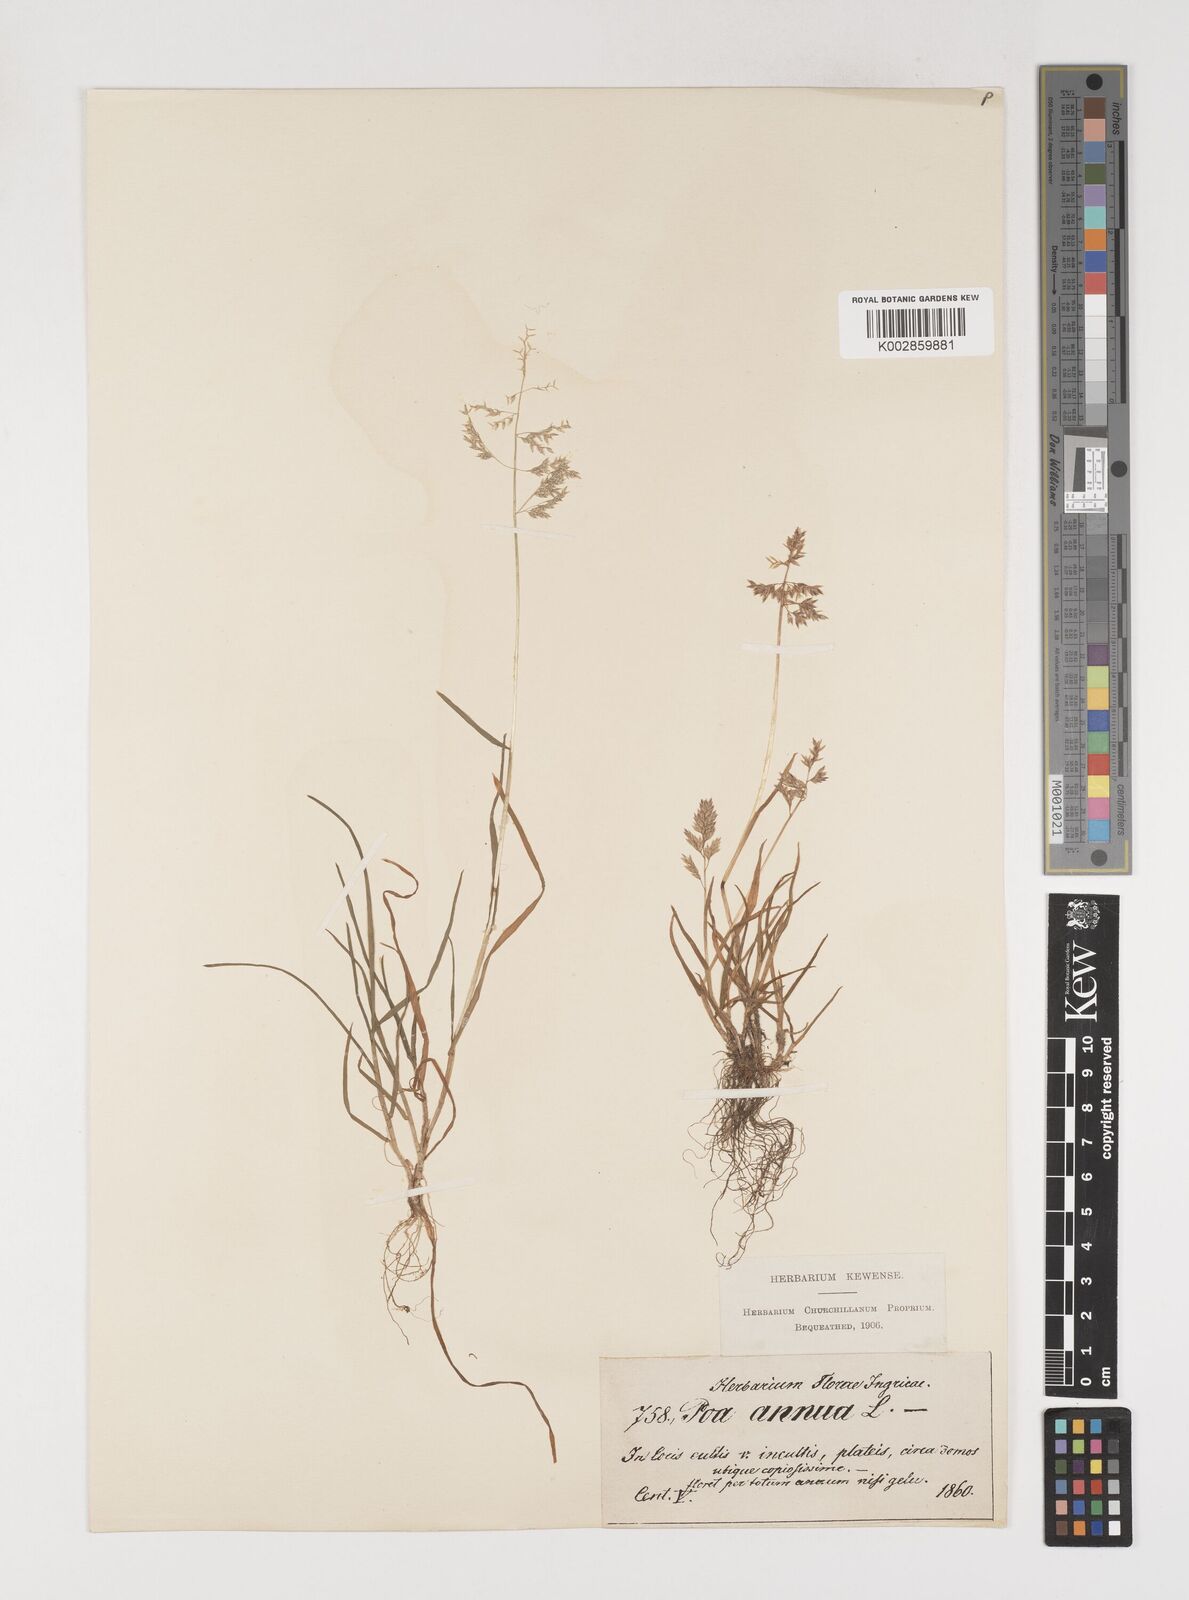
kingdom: Plantae
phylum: Tracheophyta
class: Liliopsida
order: Poales
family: Poaceae
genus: Poa
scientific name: Poa annua
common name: Annual bluegrass
